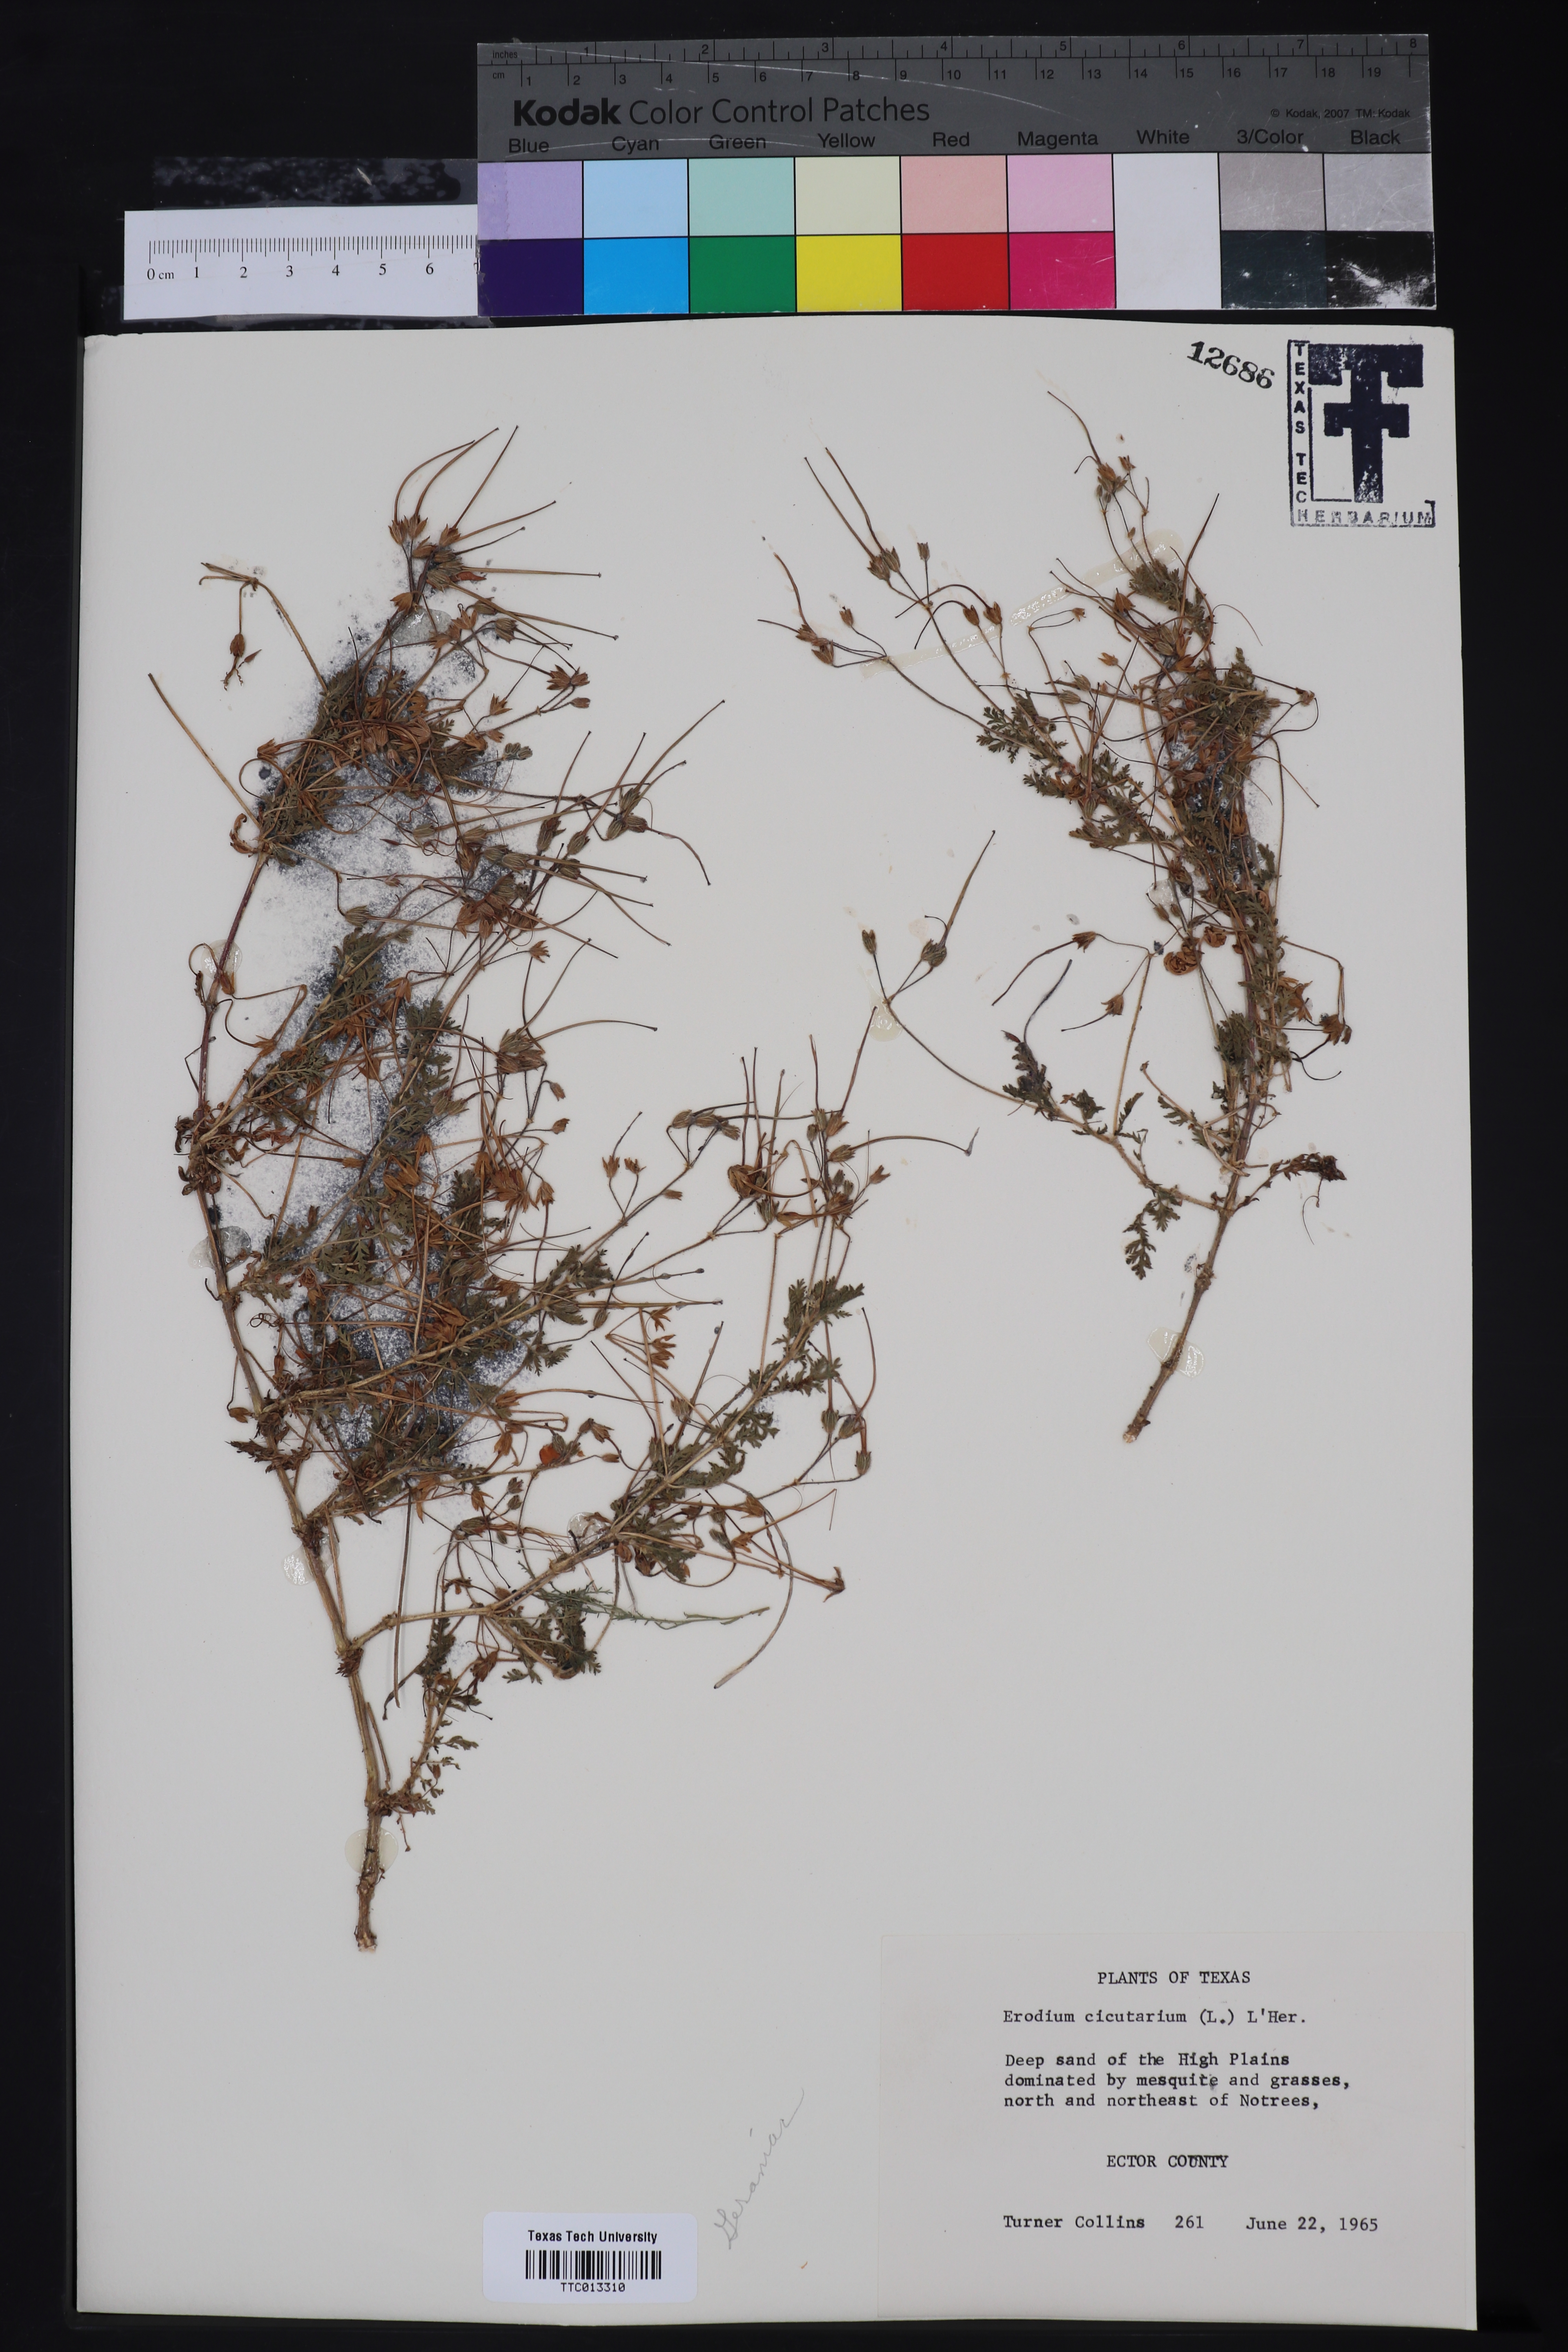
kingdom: Plantae
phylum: Tracheophyta
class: Magnoliopsida
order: Geraniales
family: Geraniaceae
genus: Erodium
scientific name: Erodium cicutarium
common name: Common stork's-bill
